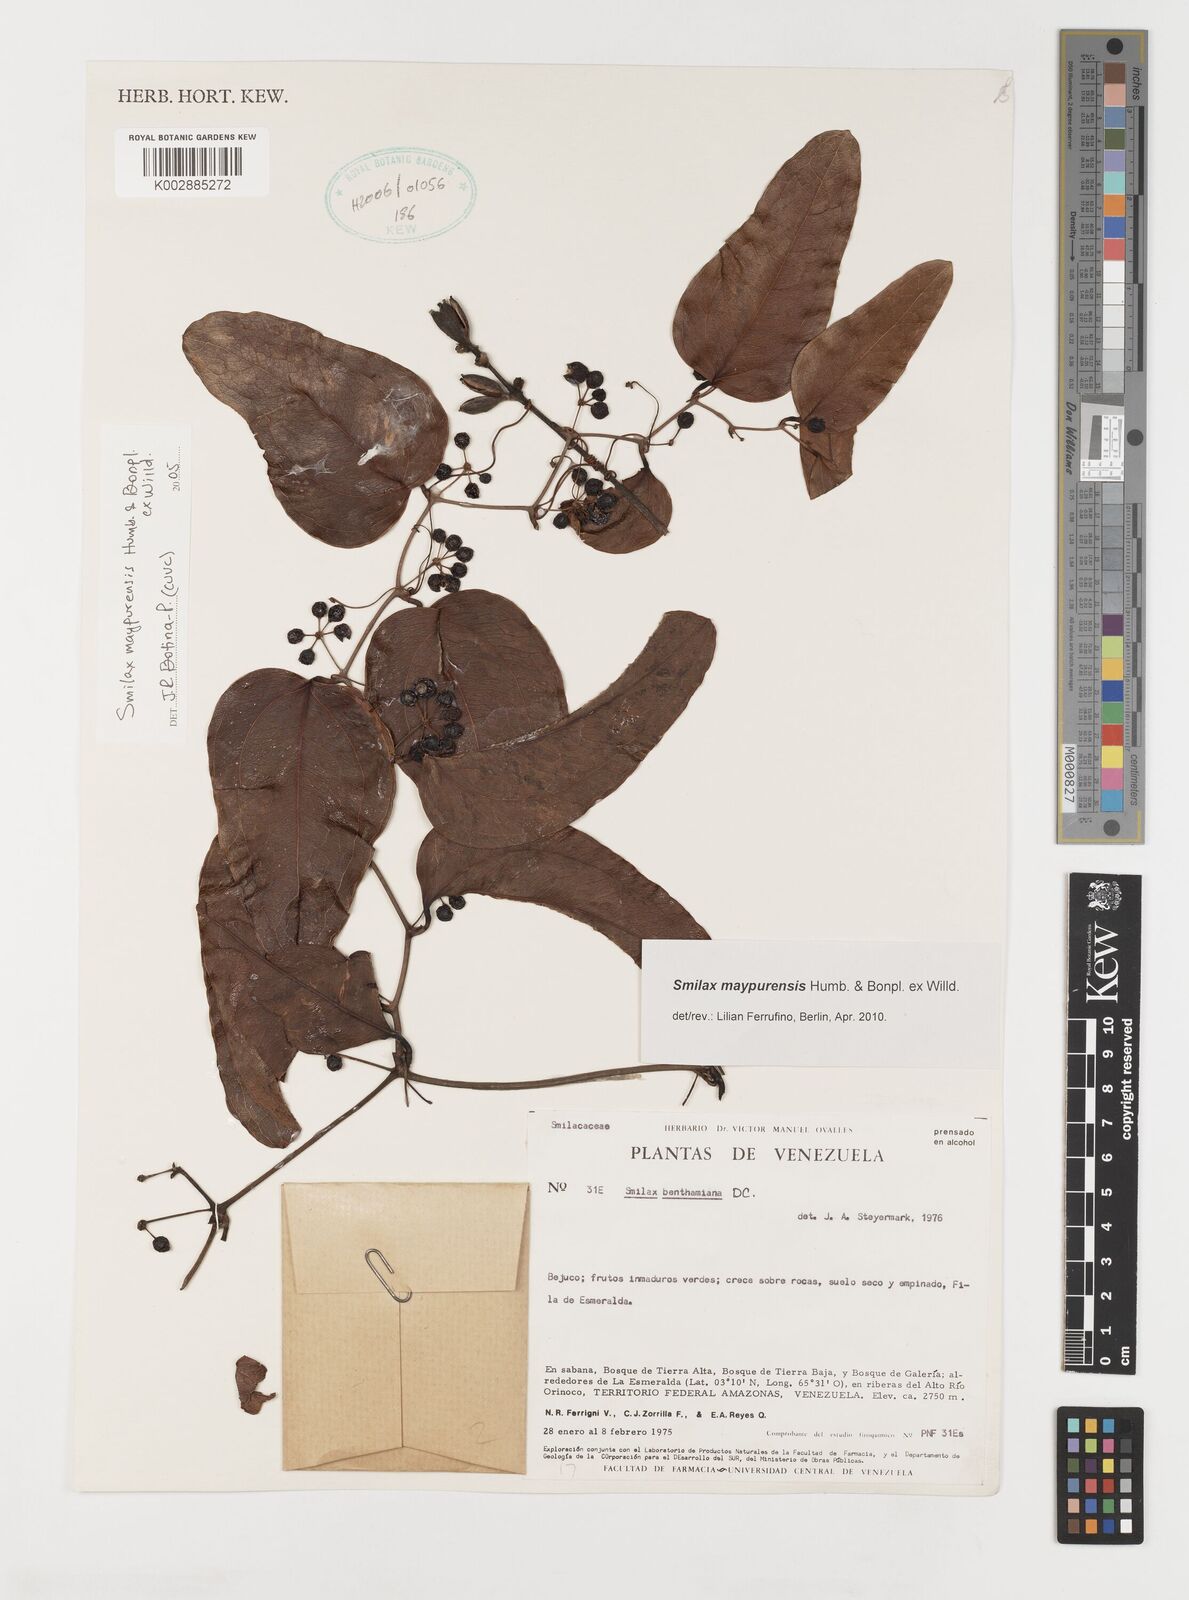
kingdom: Plantae
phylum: Tracheophyta
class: Liliopsida
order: Liliales
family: Smilacaceae
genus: Smilax
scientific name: Smilax maypurensis
